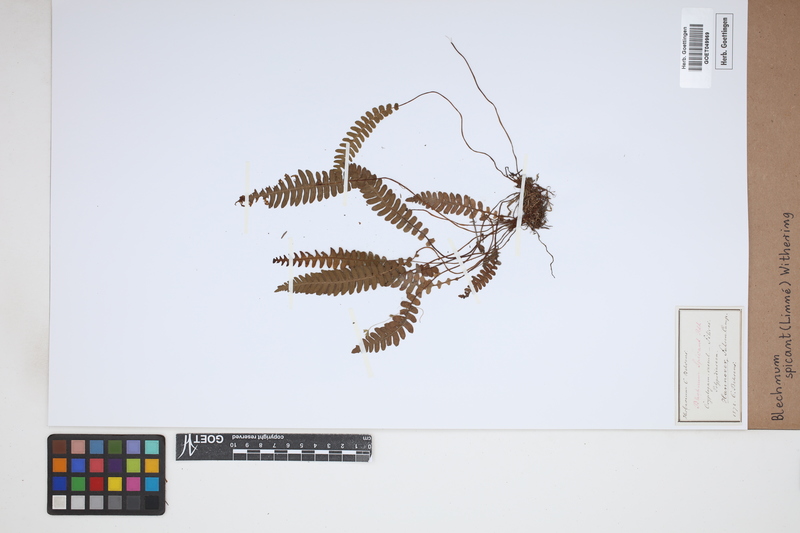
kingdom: Plantae
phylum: Tracheophyta
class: Polypodiopsida
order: Polypodiales
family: Blechnaceae
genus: Struthiopteris
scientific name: Struthiopteris spicant
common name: Deer fern
